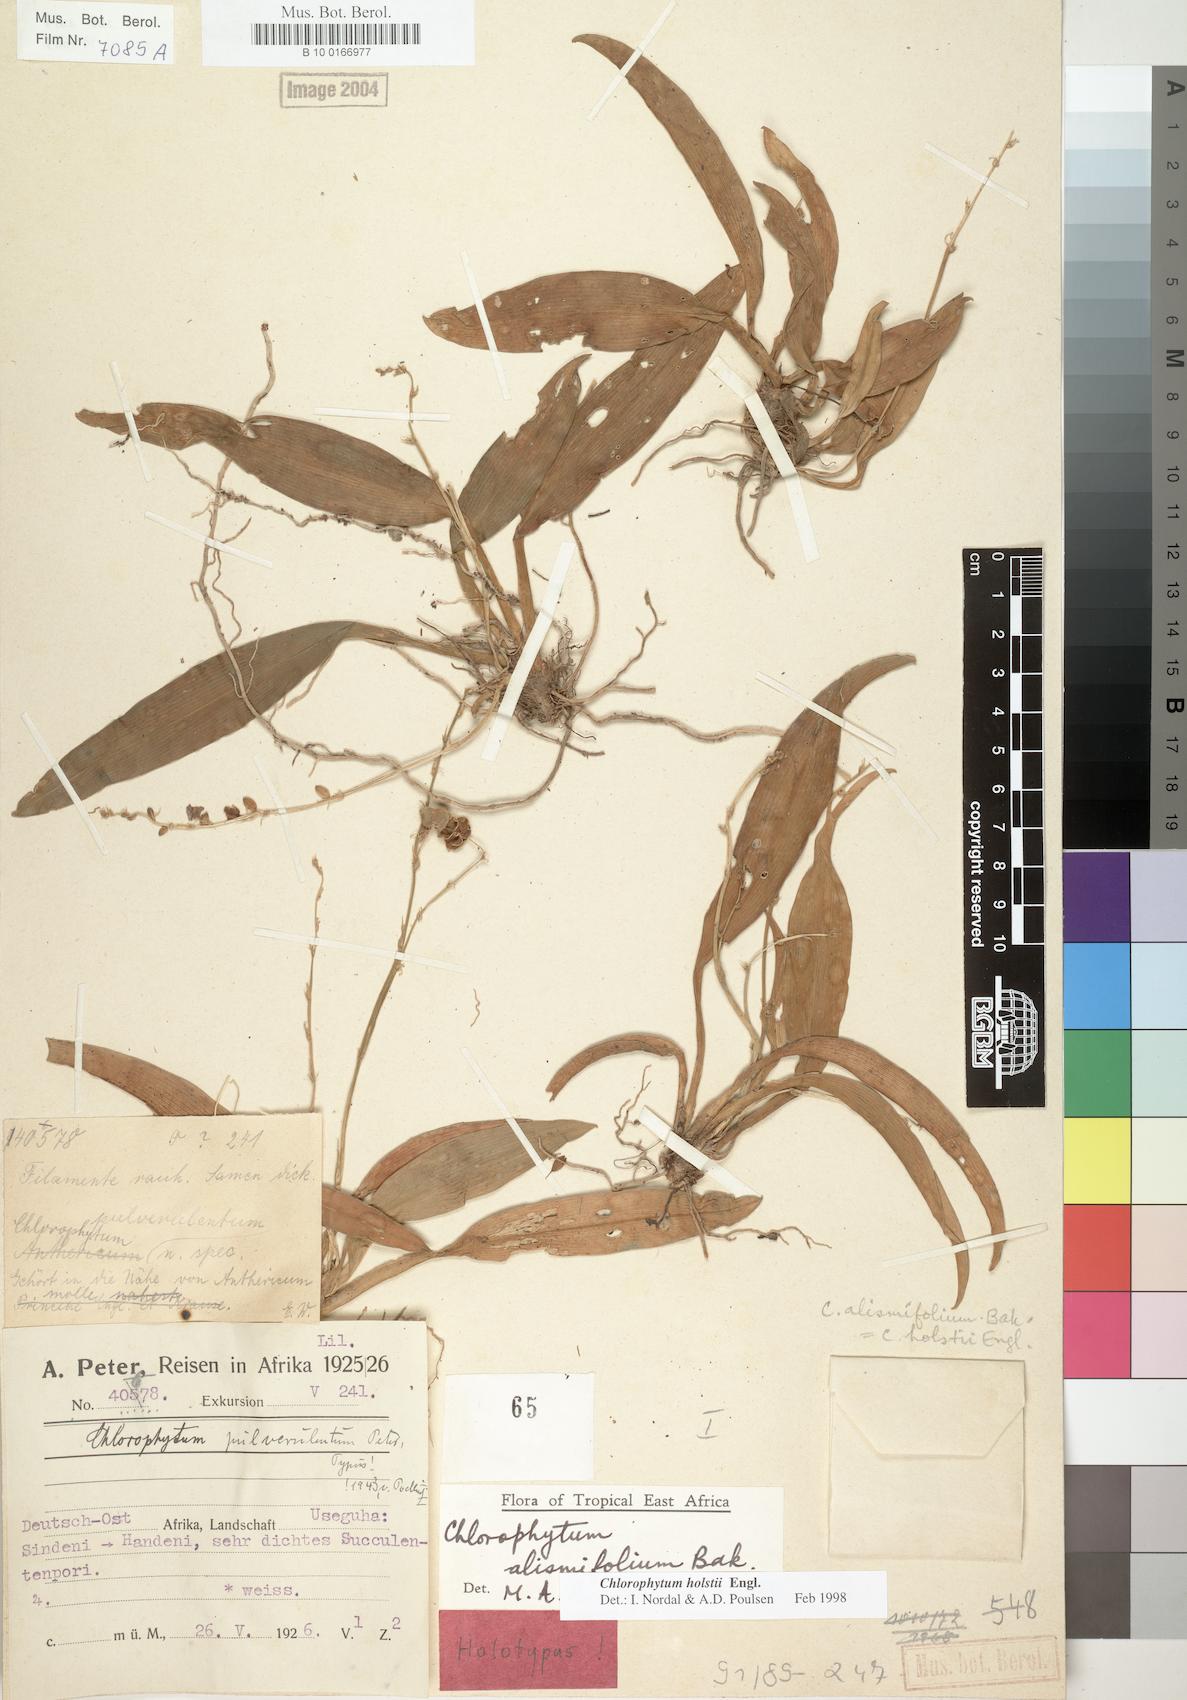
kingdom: Plantae
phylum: Tracheophyta
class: Liliopsida
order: Asparagales
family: Asparagaceae
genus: Chlorophytum
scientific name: Chlorophytum holstii
